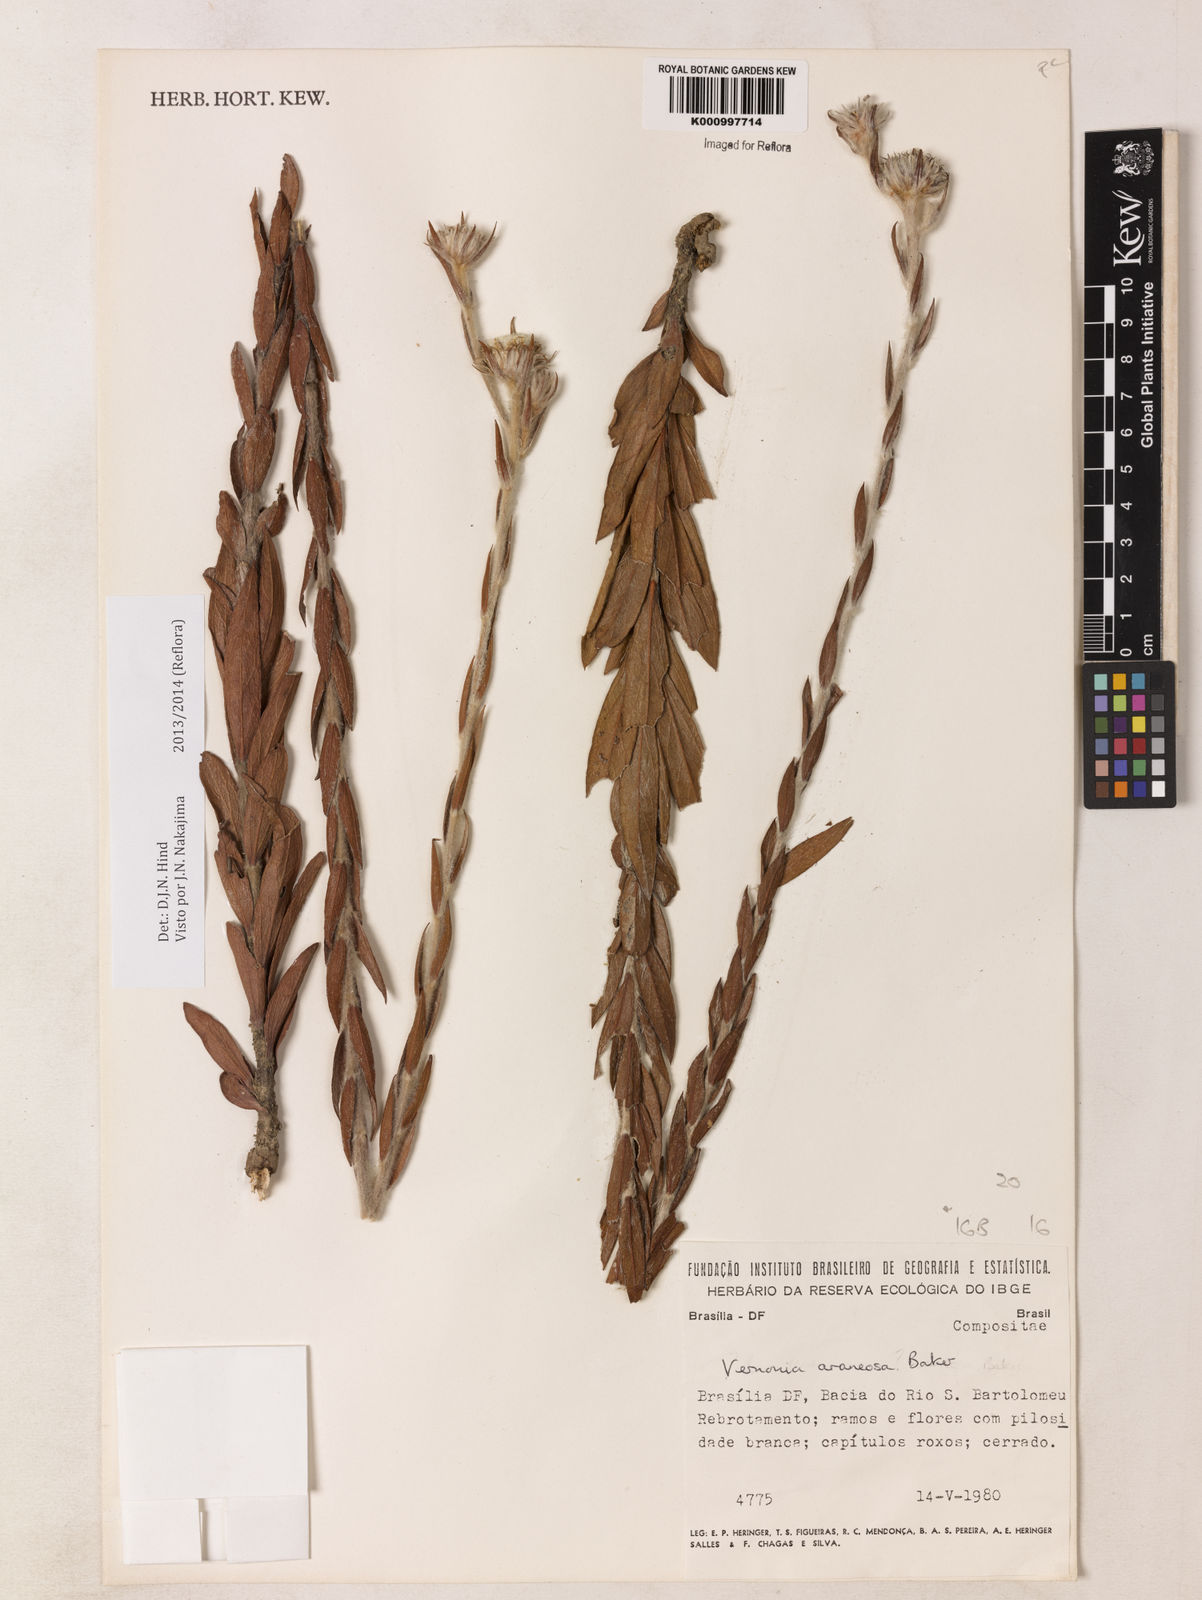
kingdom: Plantae
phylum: Tracheophyta
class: Magnoliopsida
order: Asterales
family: Asteraceae
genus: Lessingianthus
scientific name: Lessingianthus araneosus
